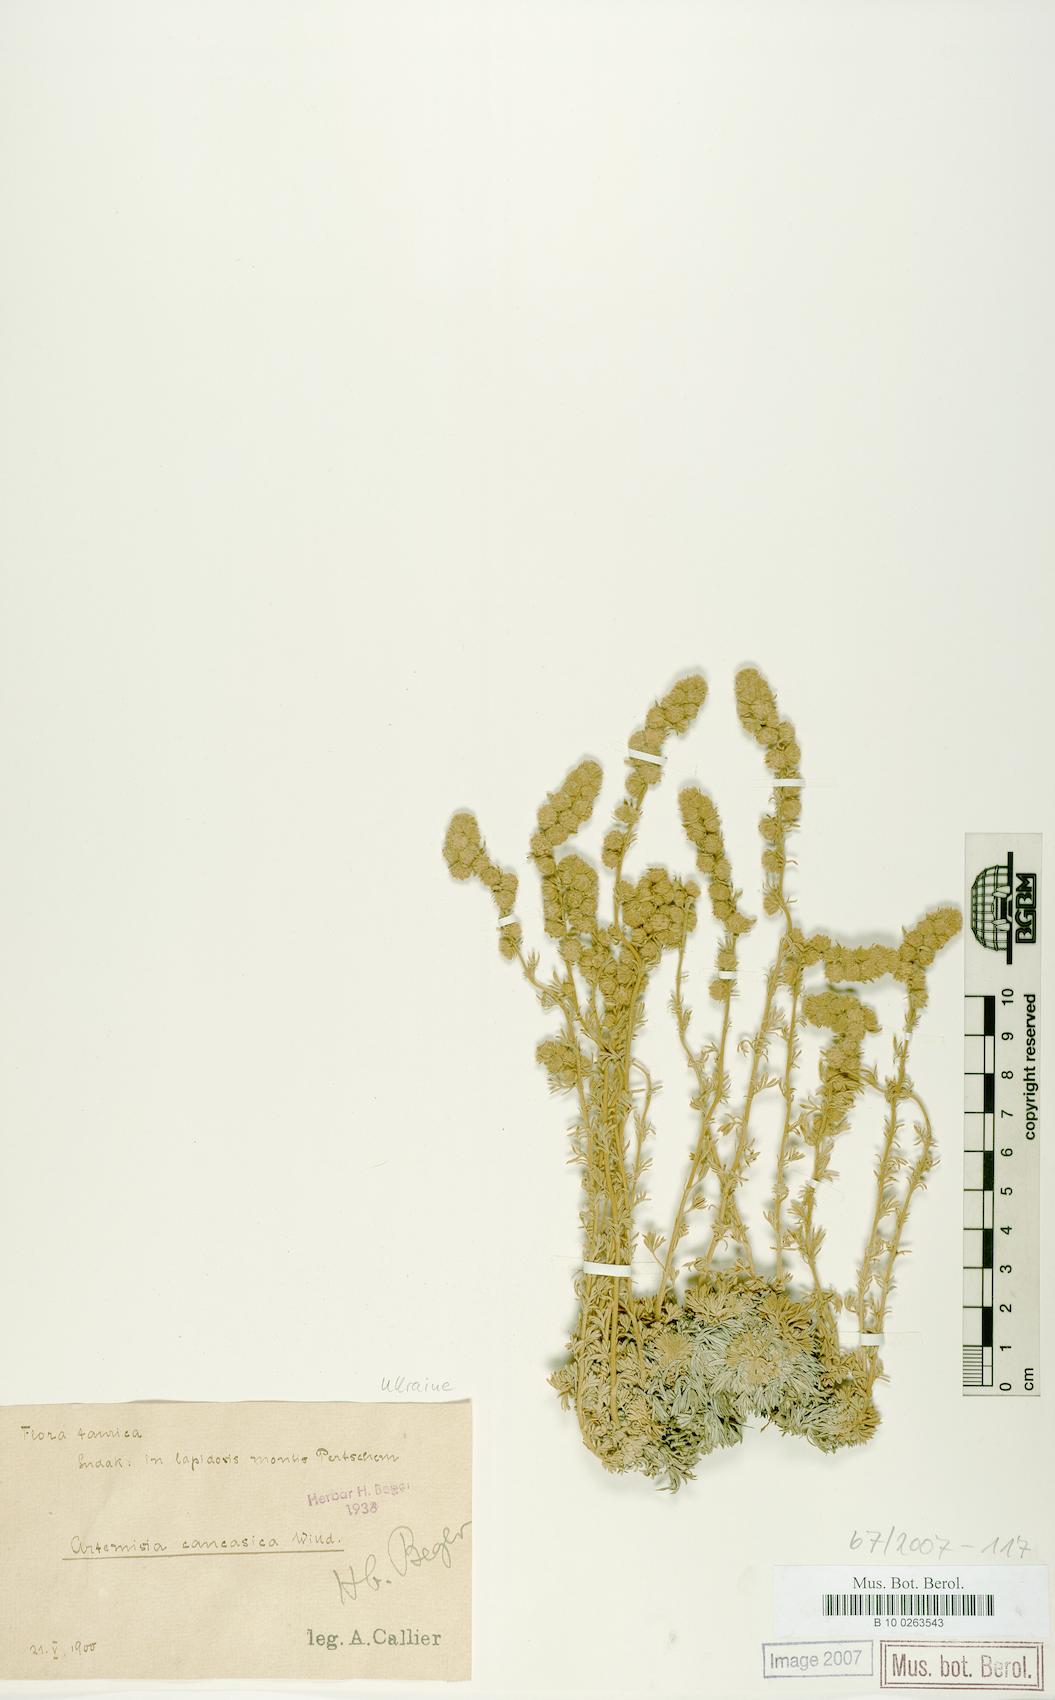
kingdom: Plantae
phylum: Tracheophyta
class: Magnoliopsida
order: Asterales
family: Asteraceae
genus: Artemisia
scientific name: Artemisia alpina
